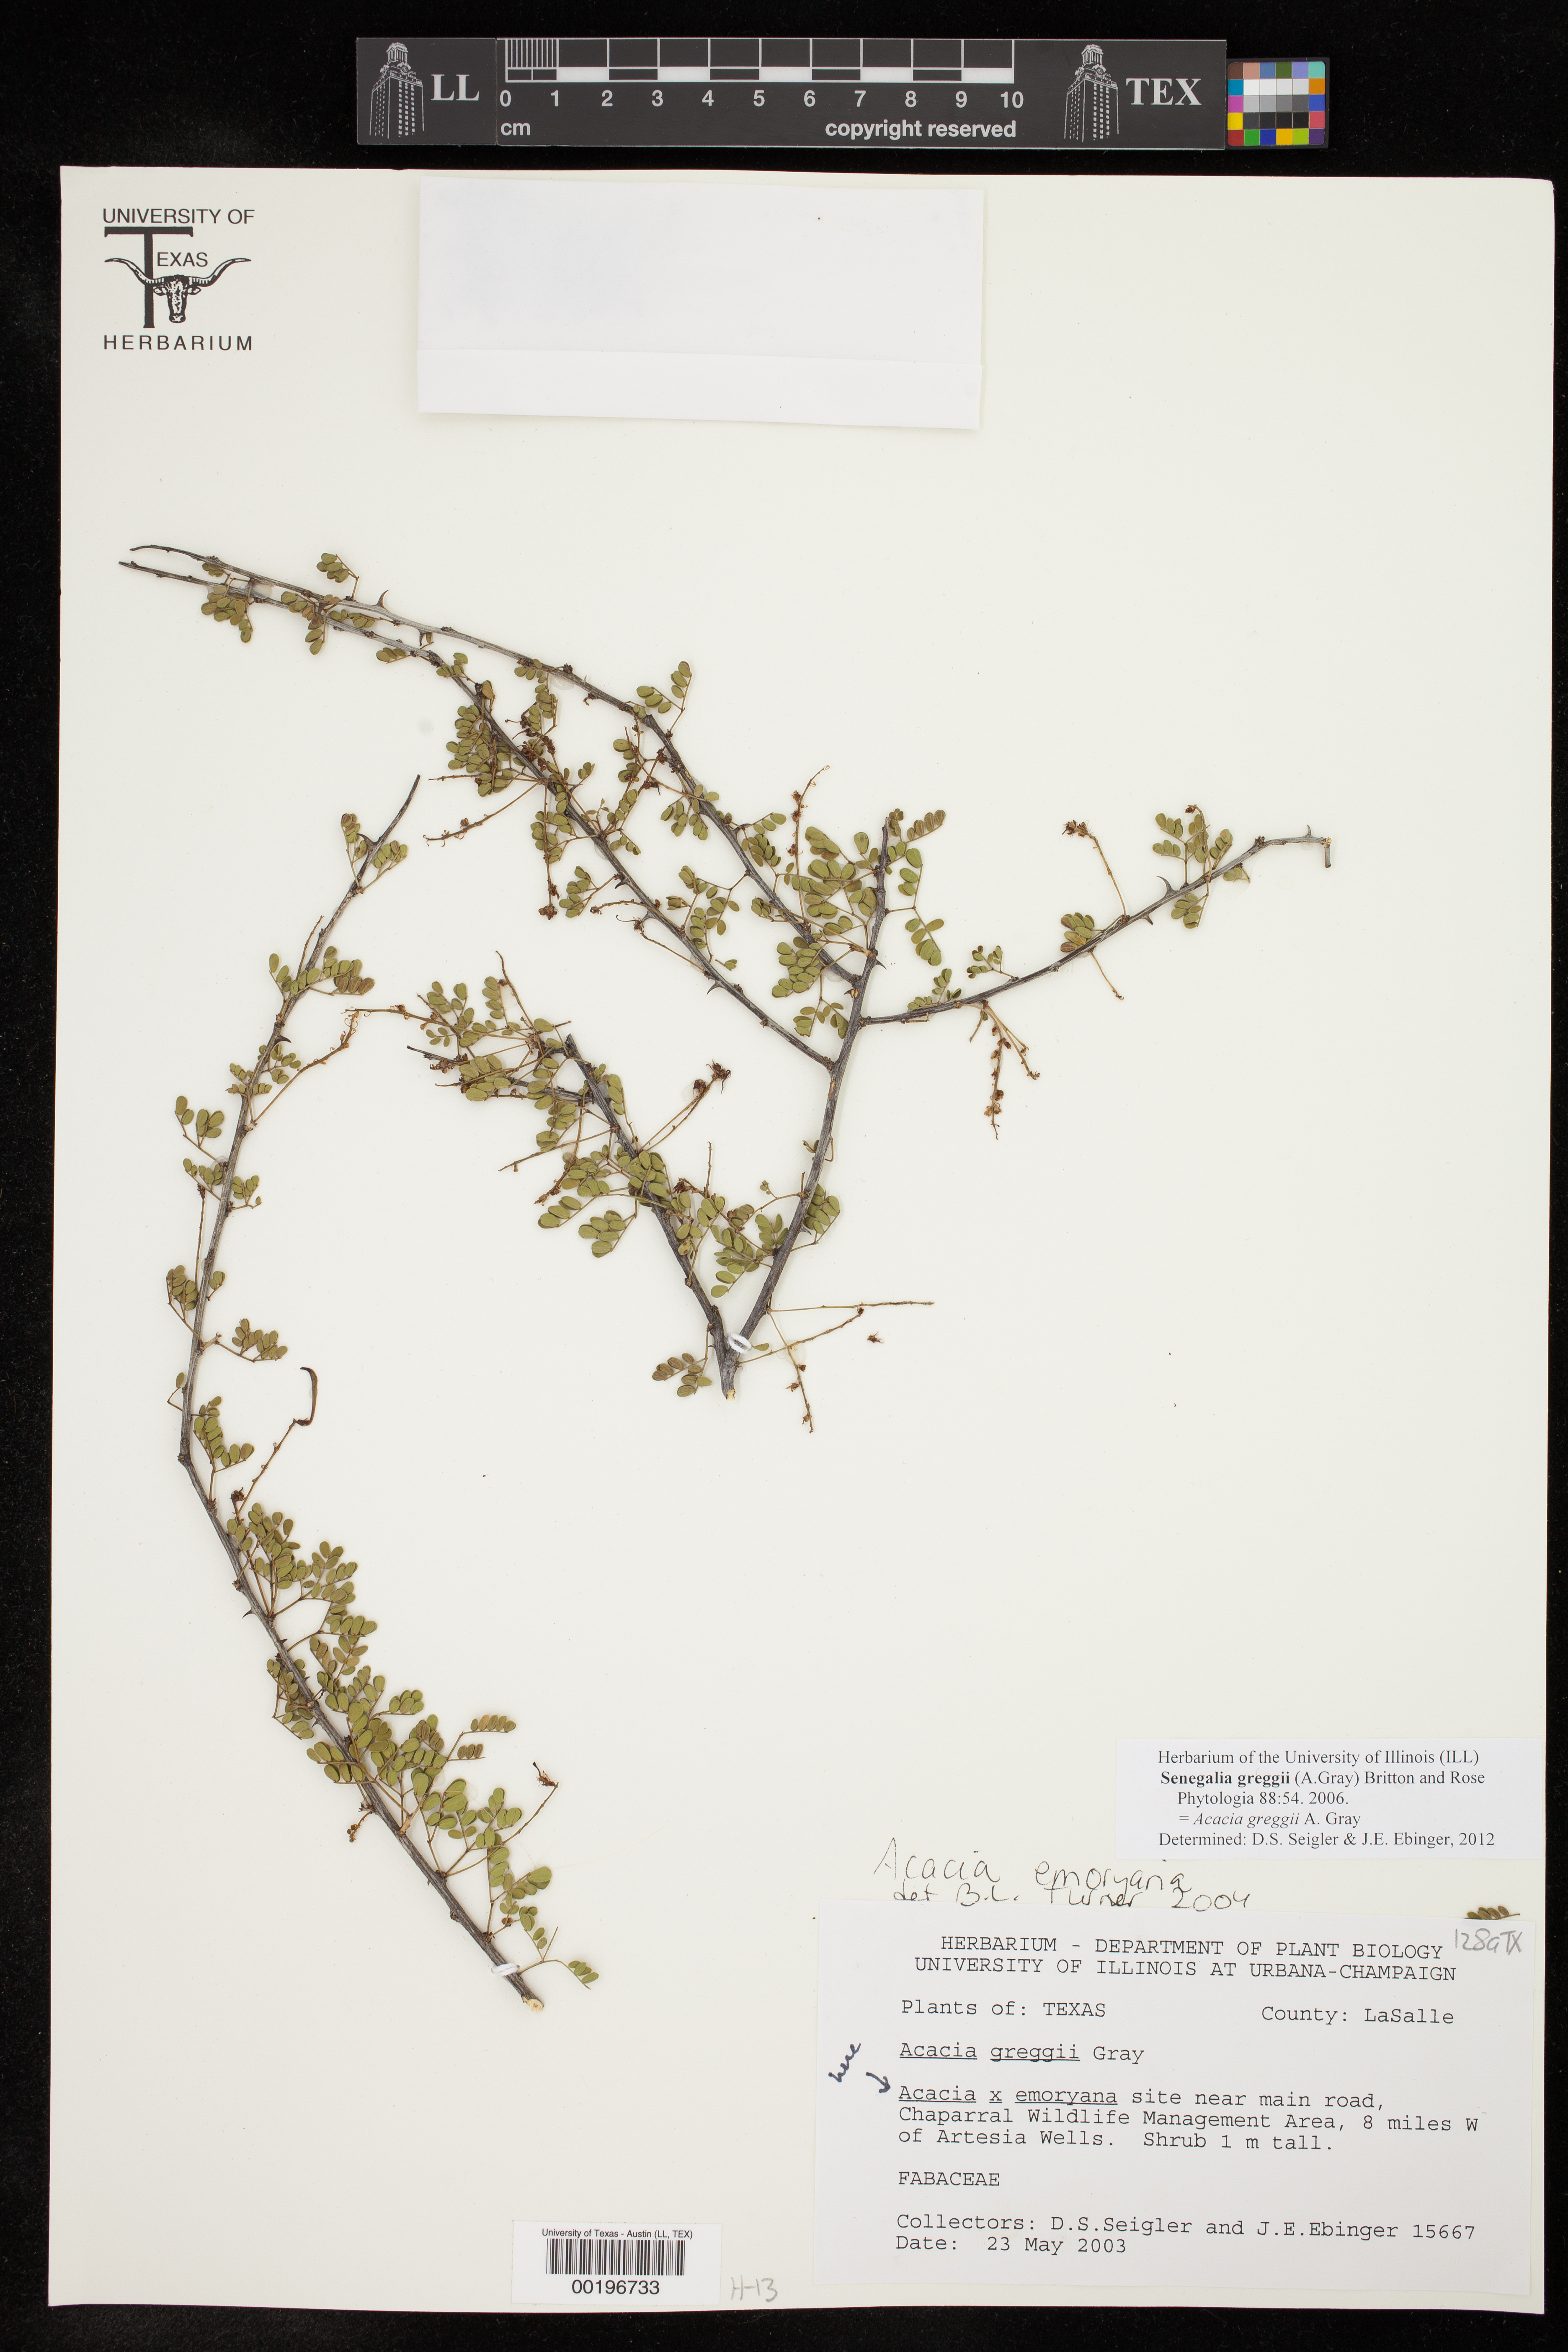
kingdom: Plantae
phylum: Tracheophyta
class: Magnoliopsida
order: Fabales
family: Fabaceae
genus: Senegalia
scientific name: Senegalia greggii
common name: Texas-mimosa
